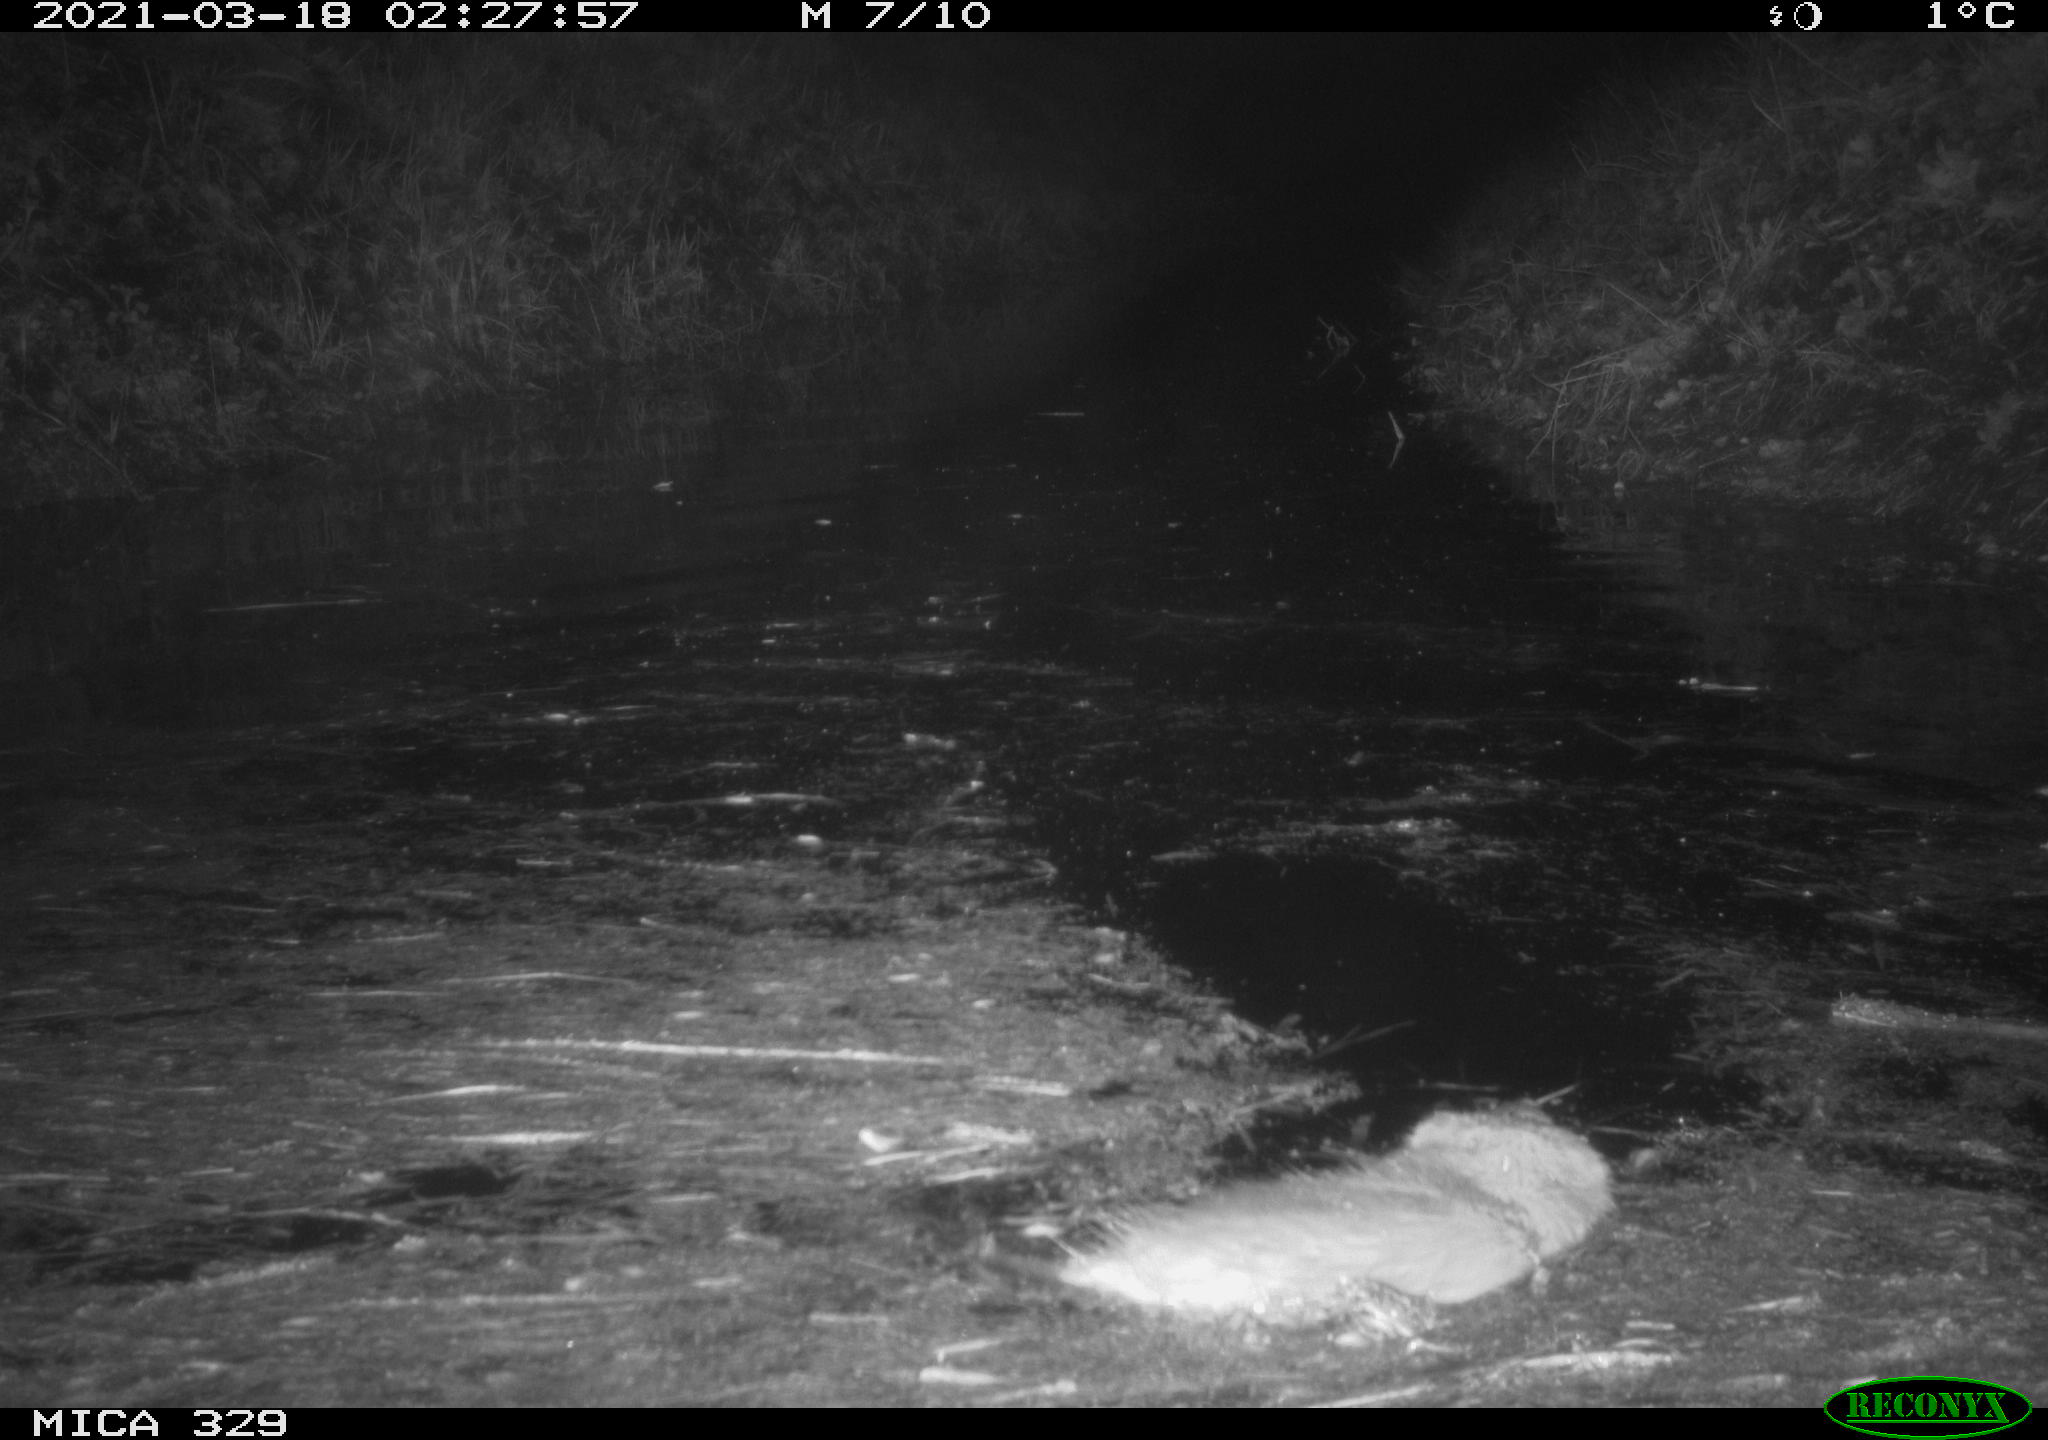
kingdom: Animalia
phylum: Chordata
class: Mammalia
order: Rodentia
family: Cricetidae
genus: Ondatra
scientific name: Ondatra zibethicus
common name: Muskrat
